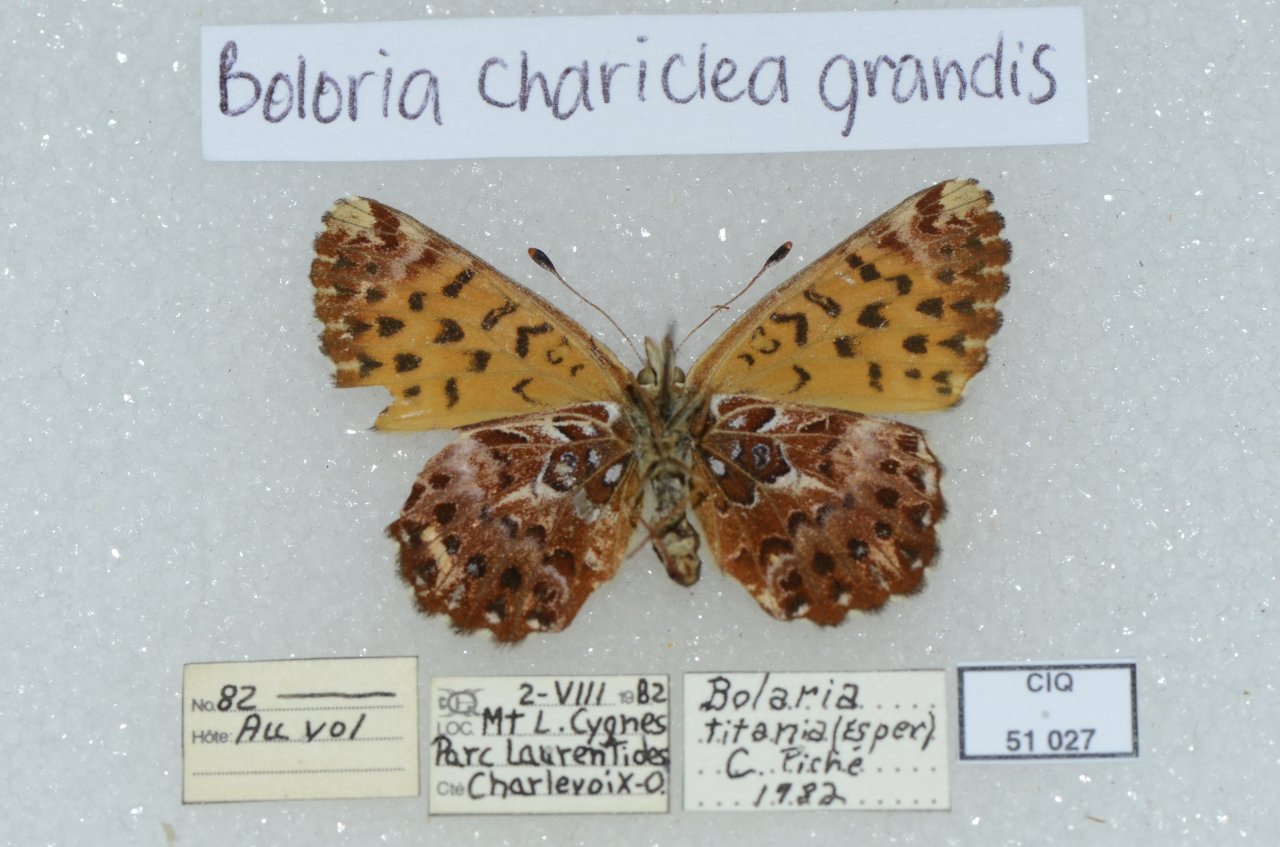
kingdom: Animalia
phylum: Arthropoda
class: Insecta
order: Lepidoptera
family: Nymphalidae
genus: Boloria
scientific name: Boloria chariclea
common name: Arctic Fritillary
